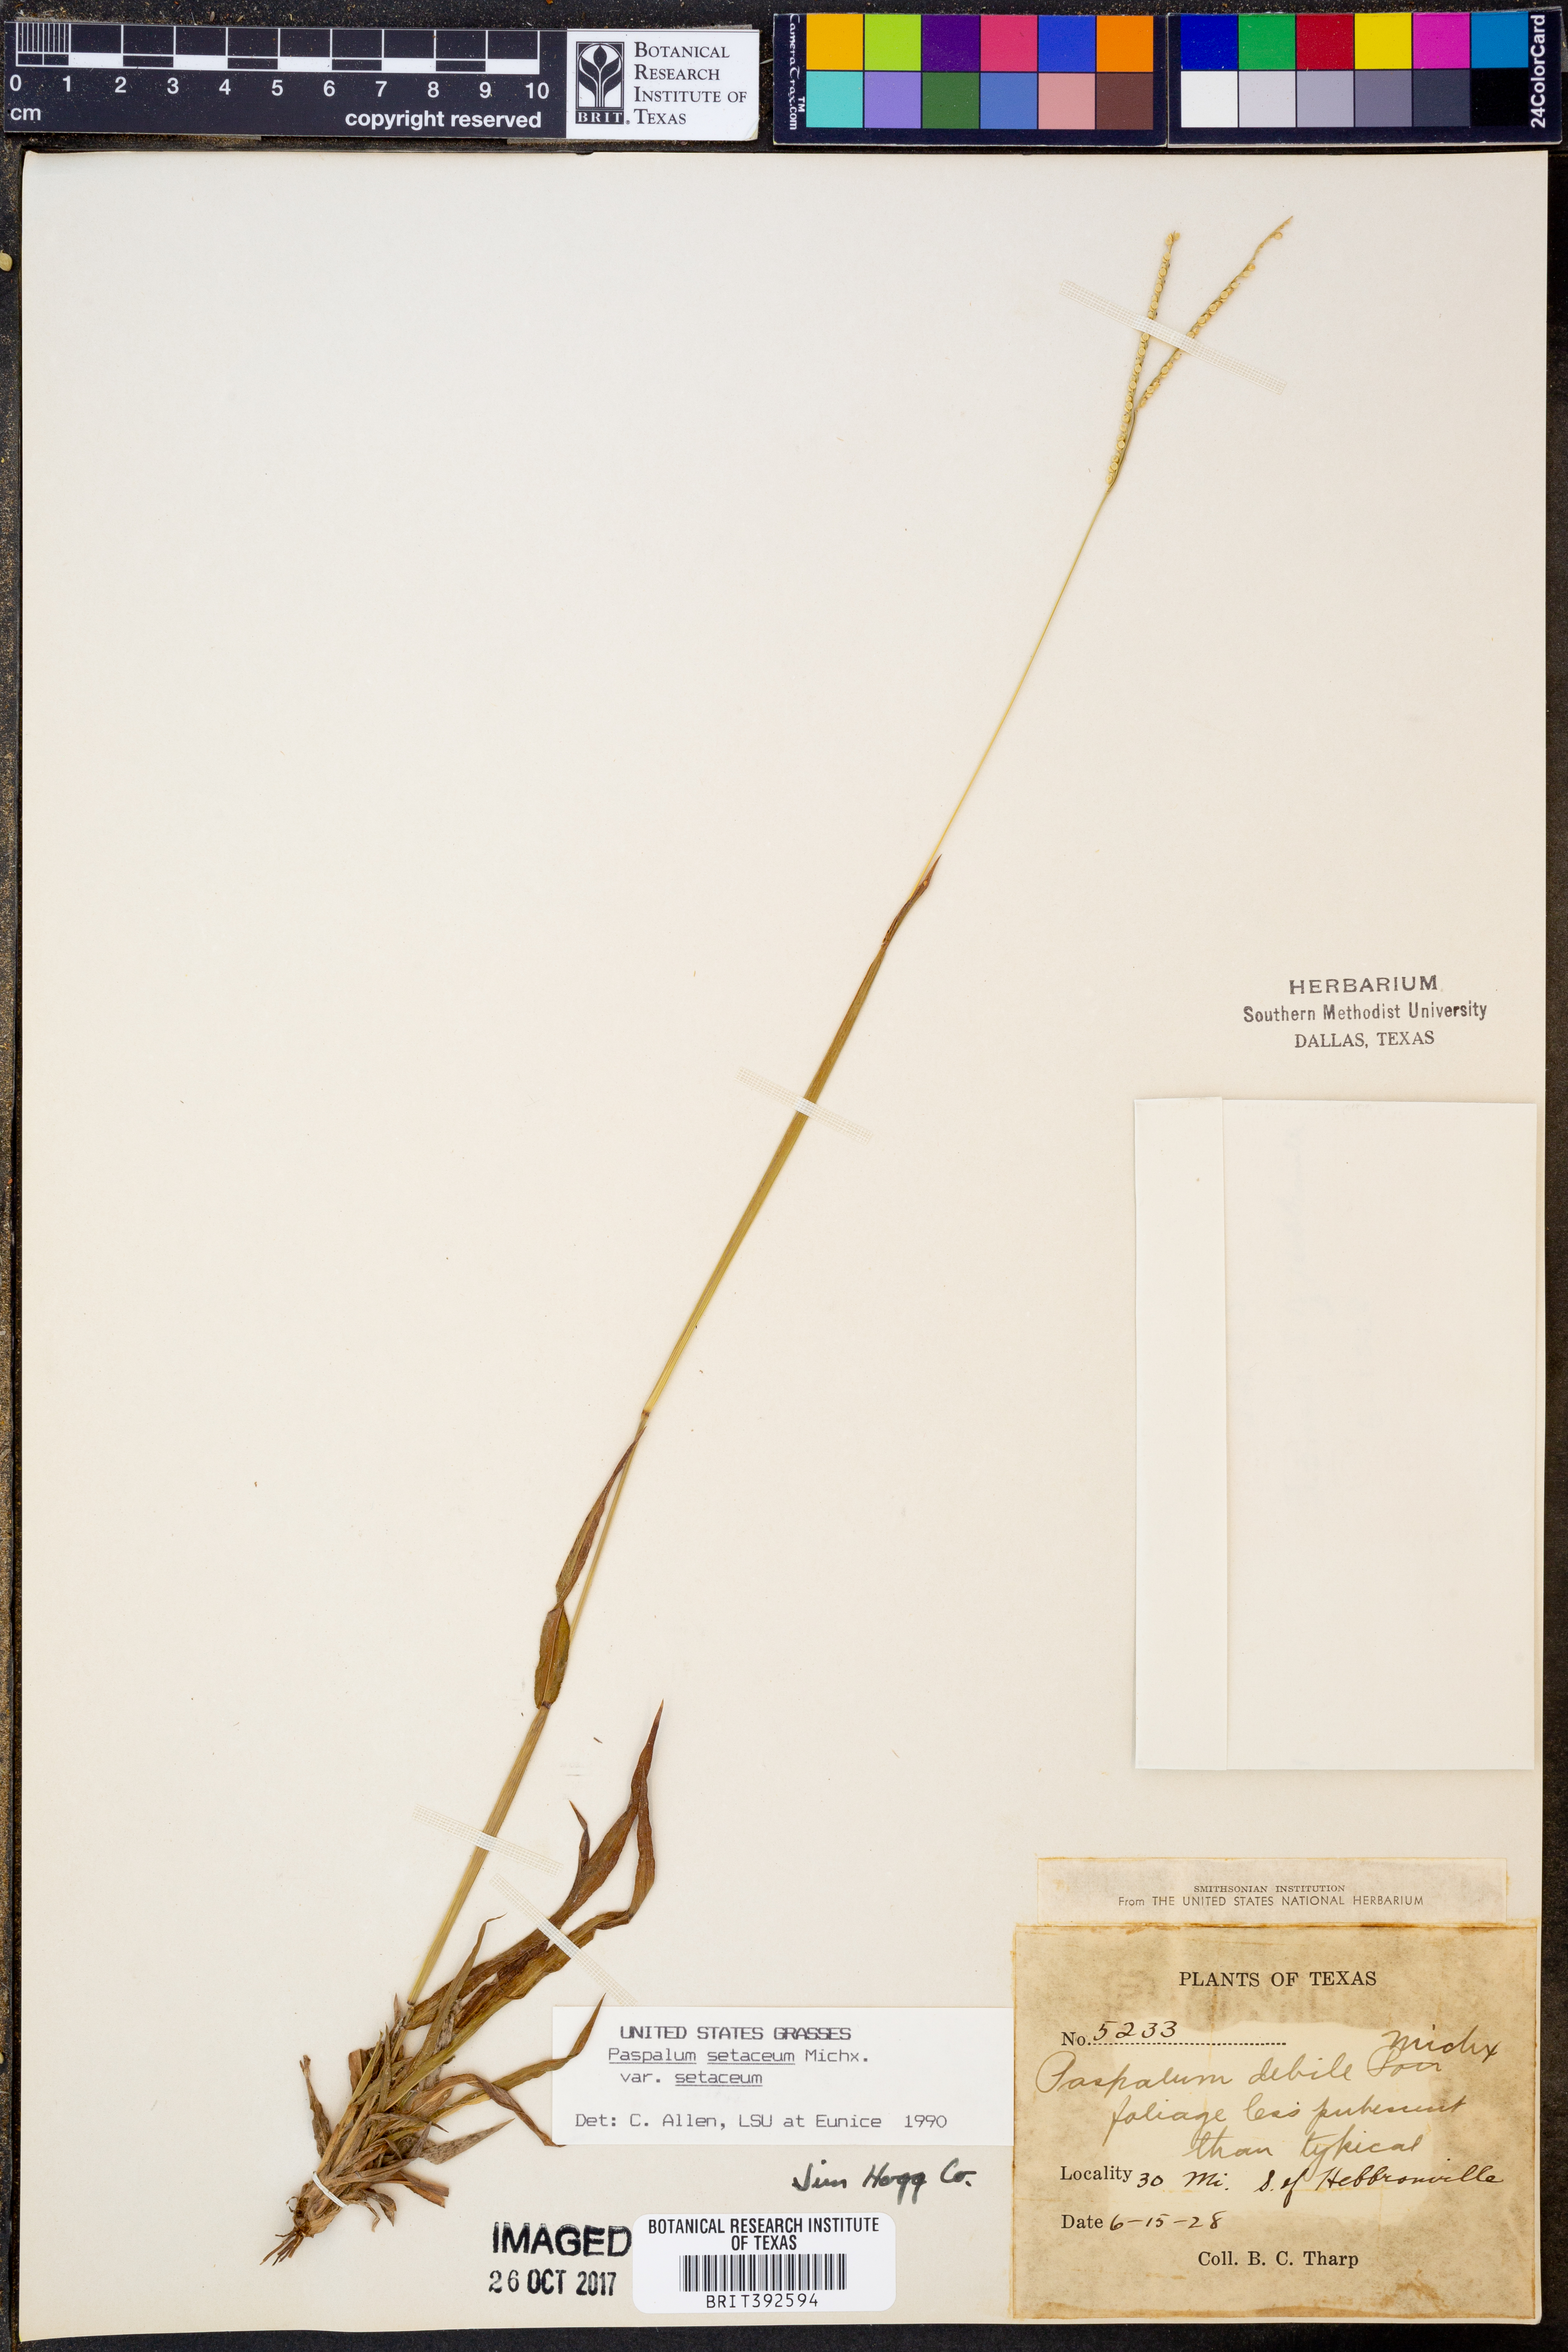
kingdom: Plantae
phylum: Tracheophyta
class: Liliopsida
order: Poales
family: Poaceae
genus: Paspalum
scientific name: Paspalum setaceum
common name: Slender paspalum
